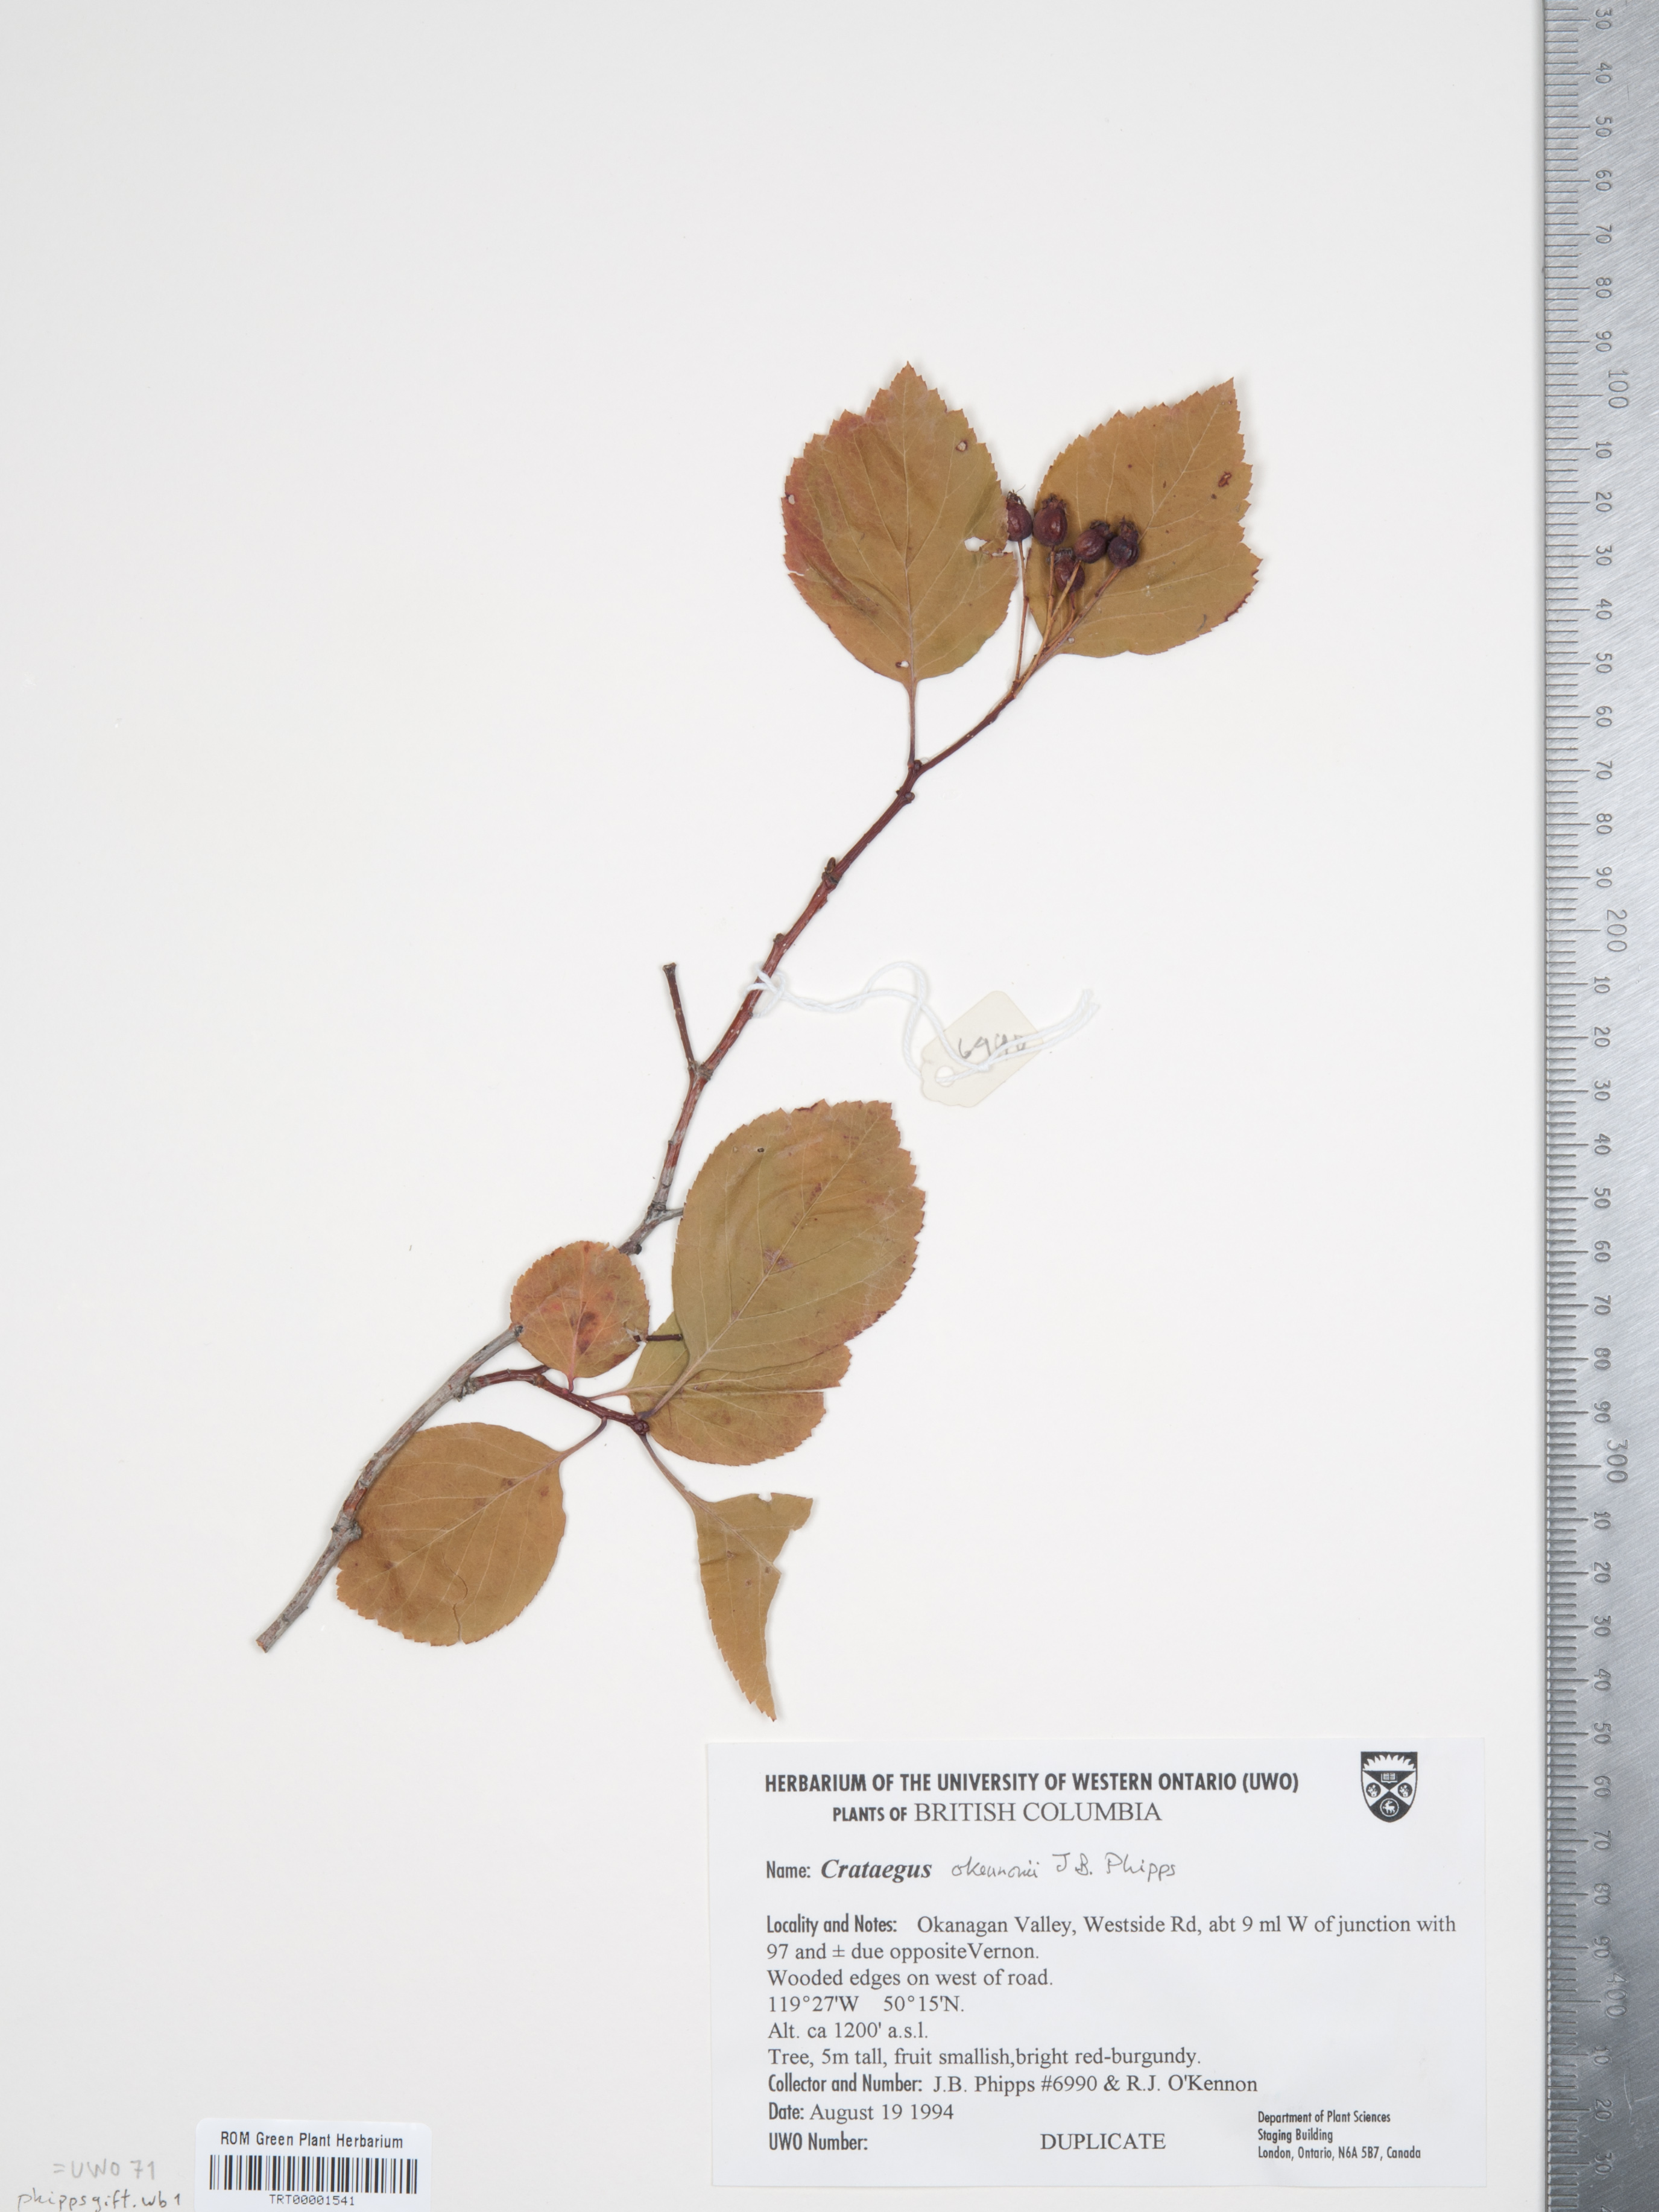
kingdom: Plantae
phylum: Tracheophyta
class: Magnoliopsida
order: Rosales
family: Rosaceae
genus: Crataegus
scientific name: Crataegus okennonii
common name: O'kennon's hawthorn
